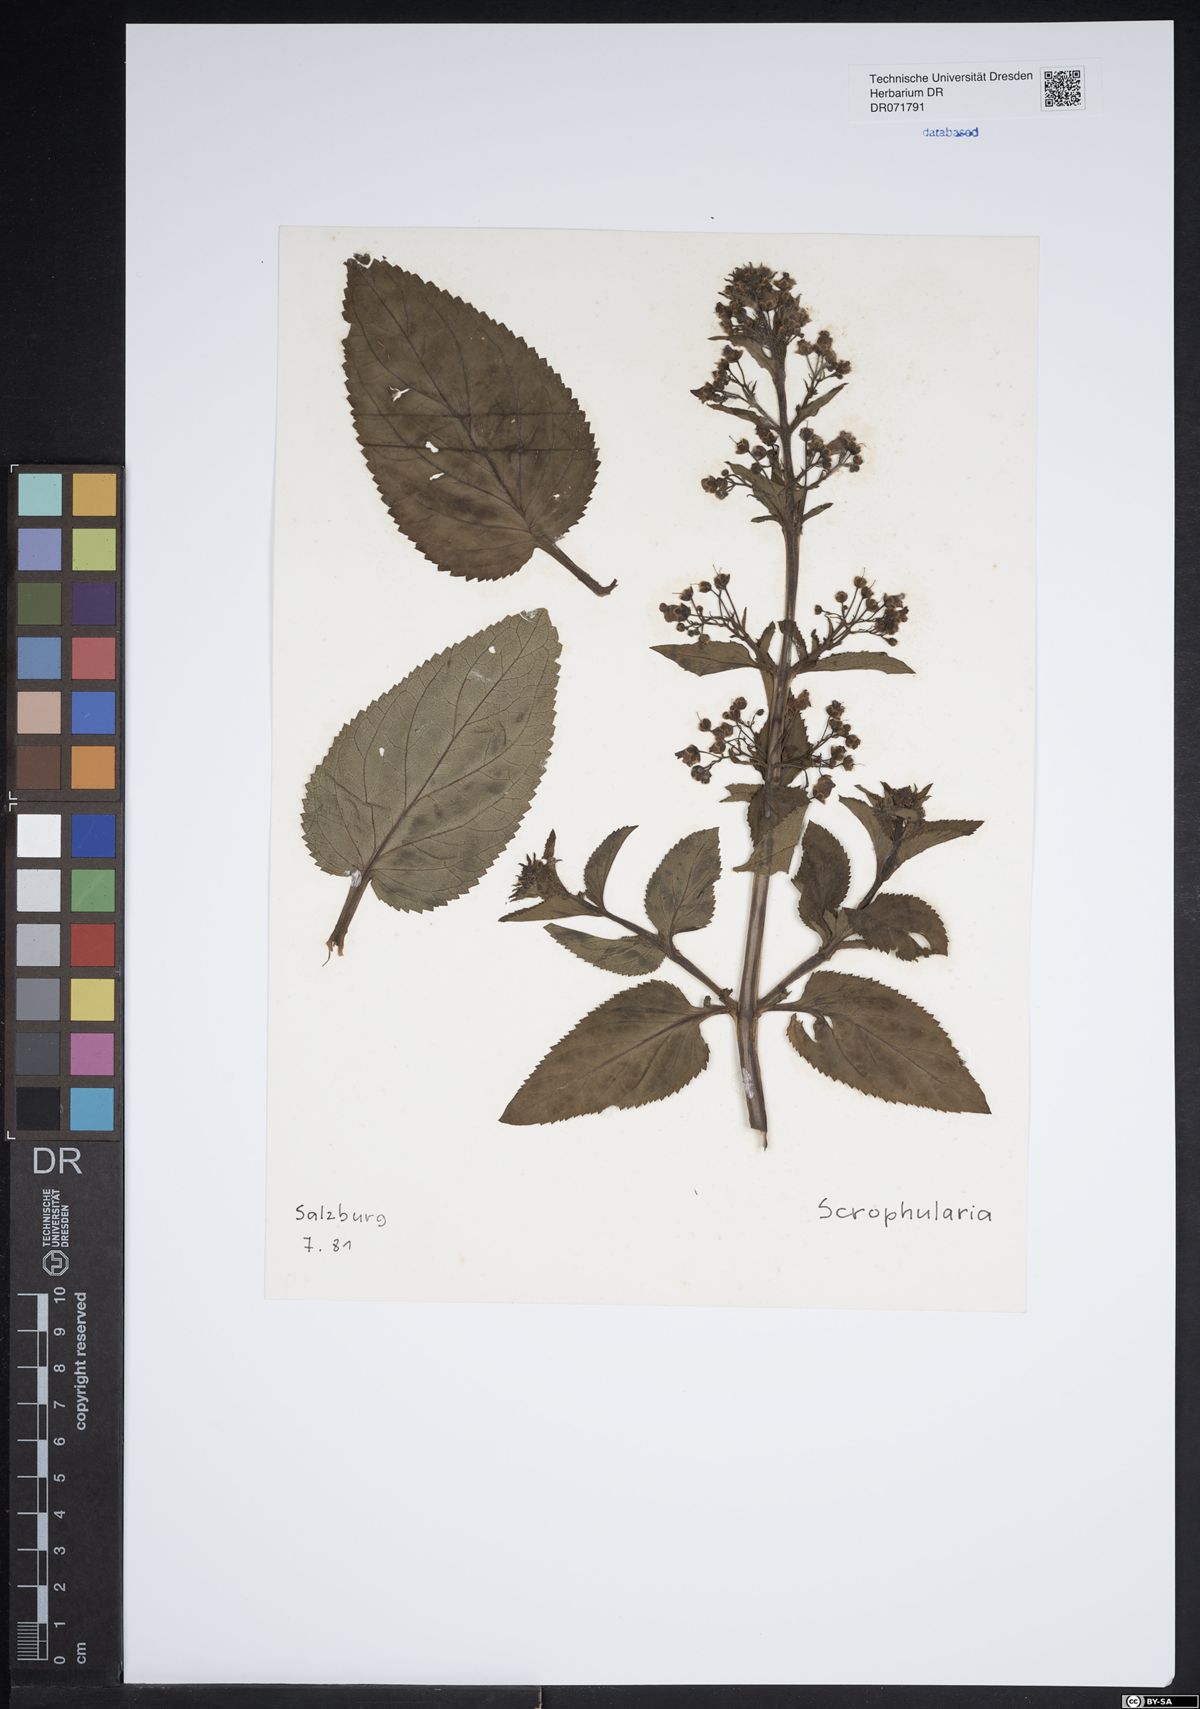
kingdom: Plantae
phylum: Tracheophyta
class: Magnoliopsida
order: Lamiales
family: Scrophulariaceae
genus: Scrophularia
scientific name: Scrophularia
